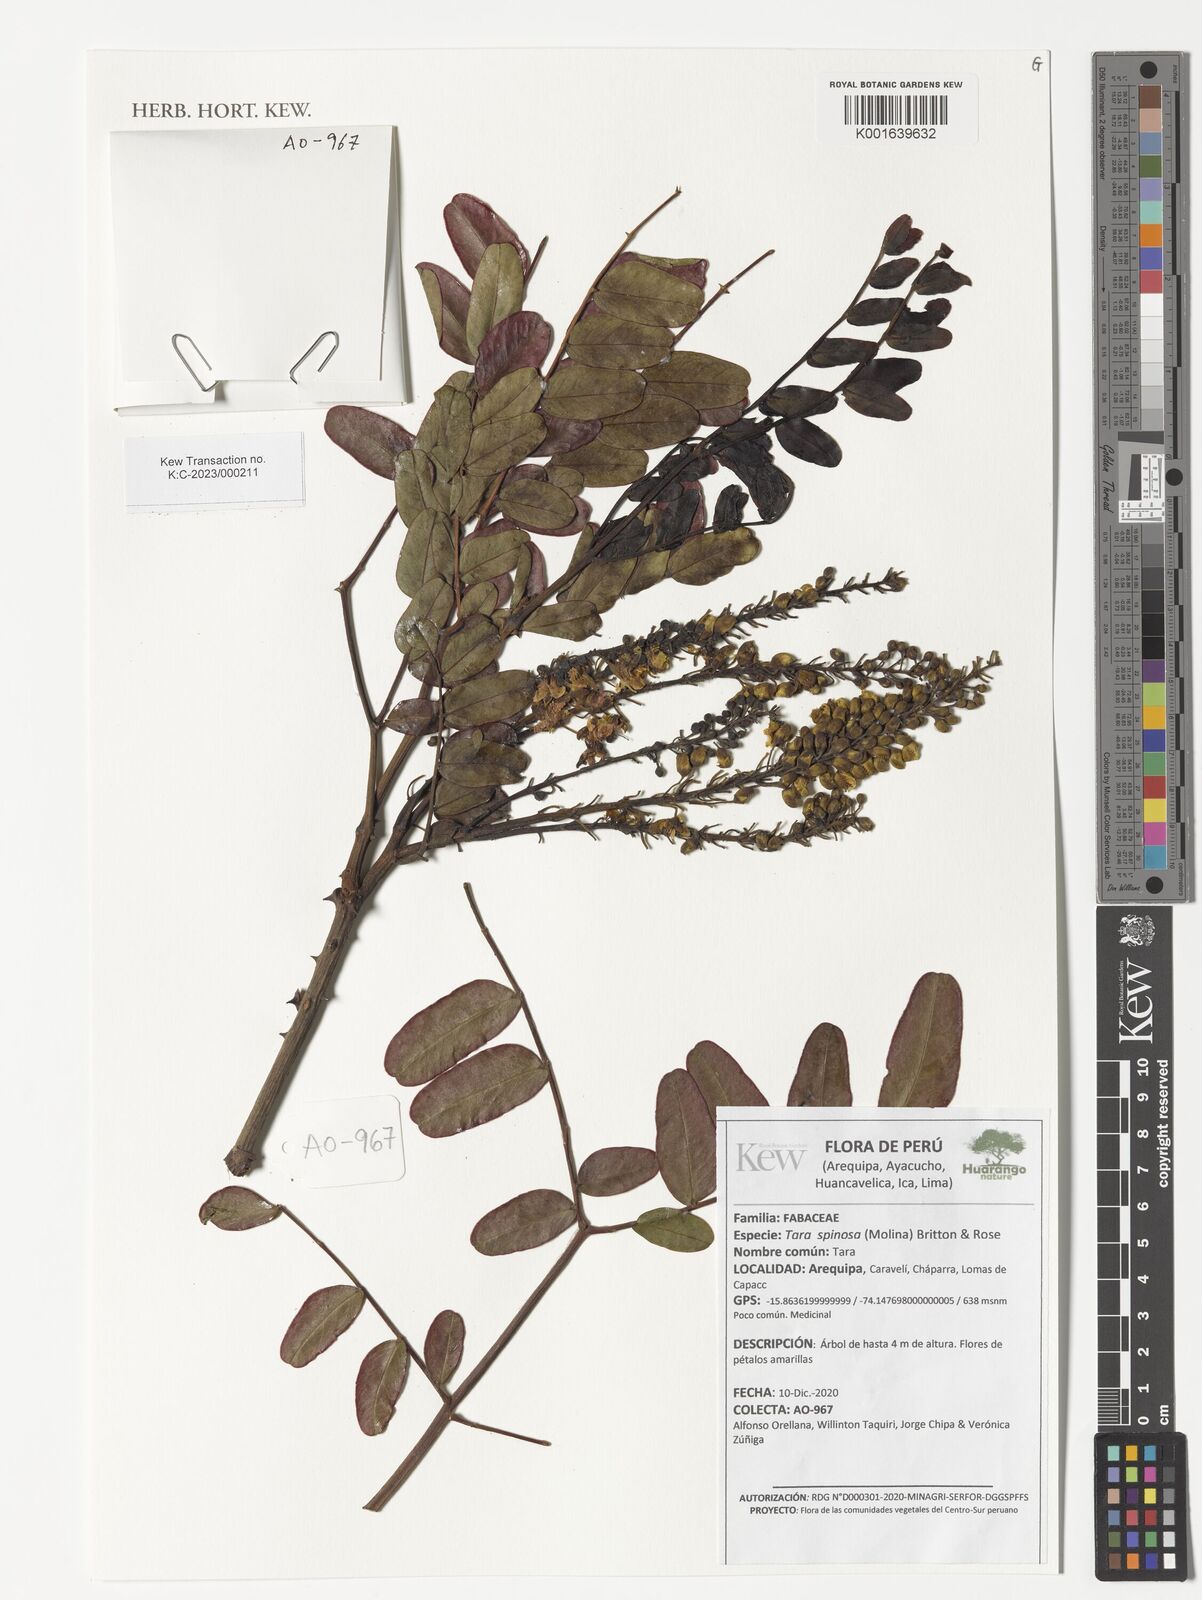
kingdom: Plantae
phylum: Tracheophyta
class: Magnoliopsida
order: Fabales
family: Fabaceae
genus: Tara
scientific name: Tara spinosa
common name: Spiny holdback
